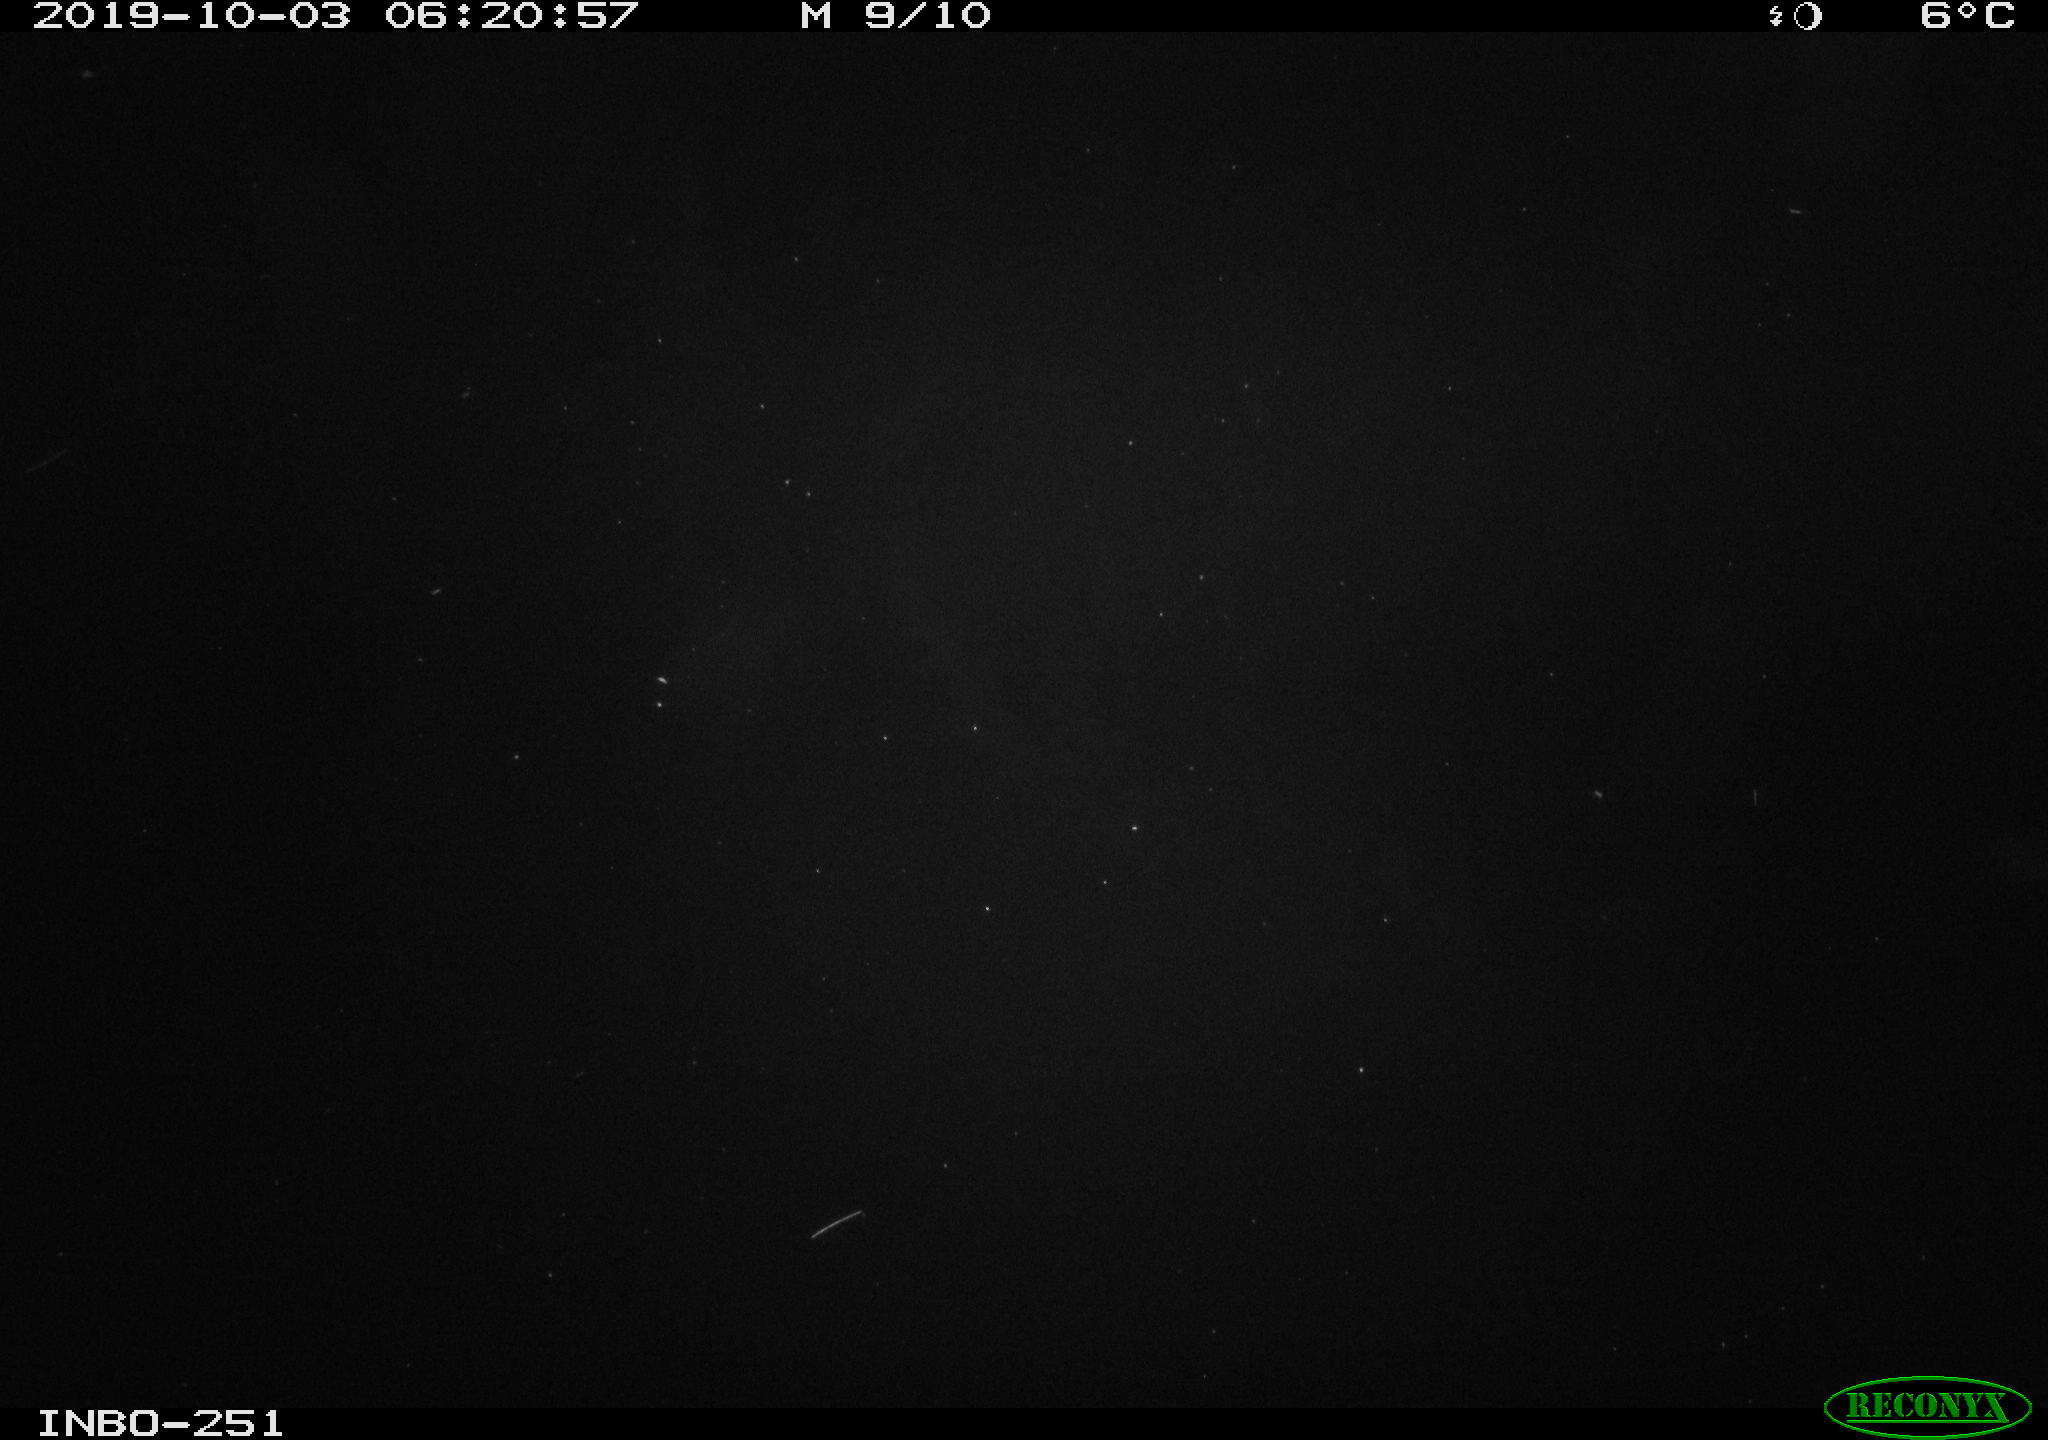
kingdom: Animalia
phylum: Chordata
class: Aves
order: Anseriformes
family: Anatidae
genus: Anas
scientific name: Anas platyrhynchos
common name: Mallard
